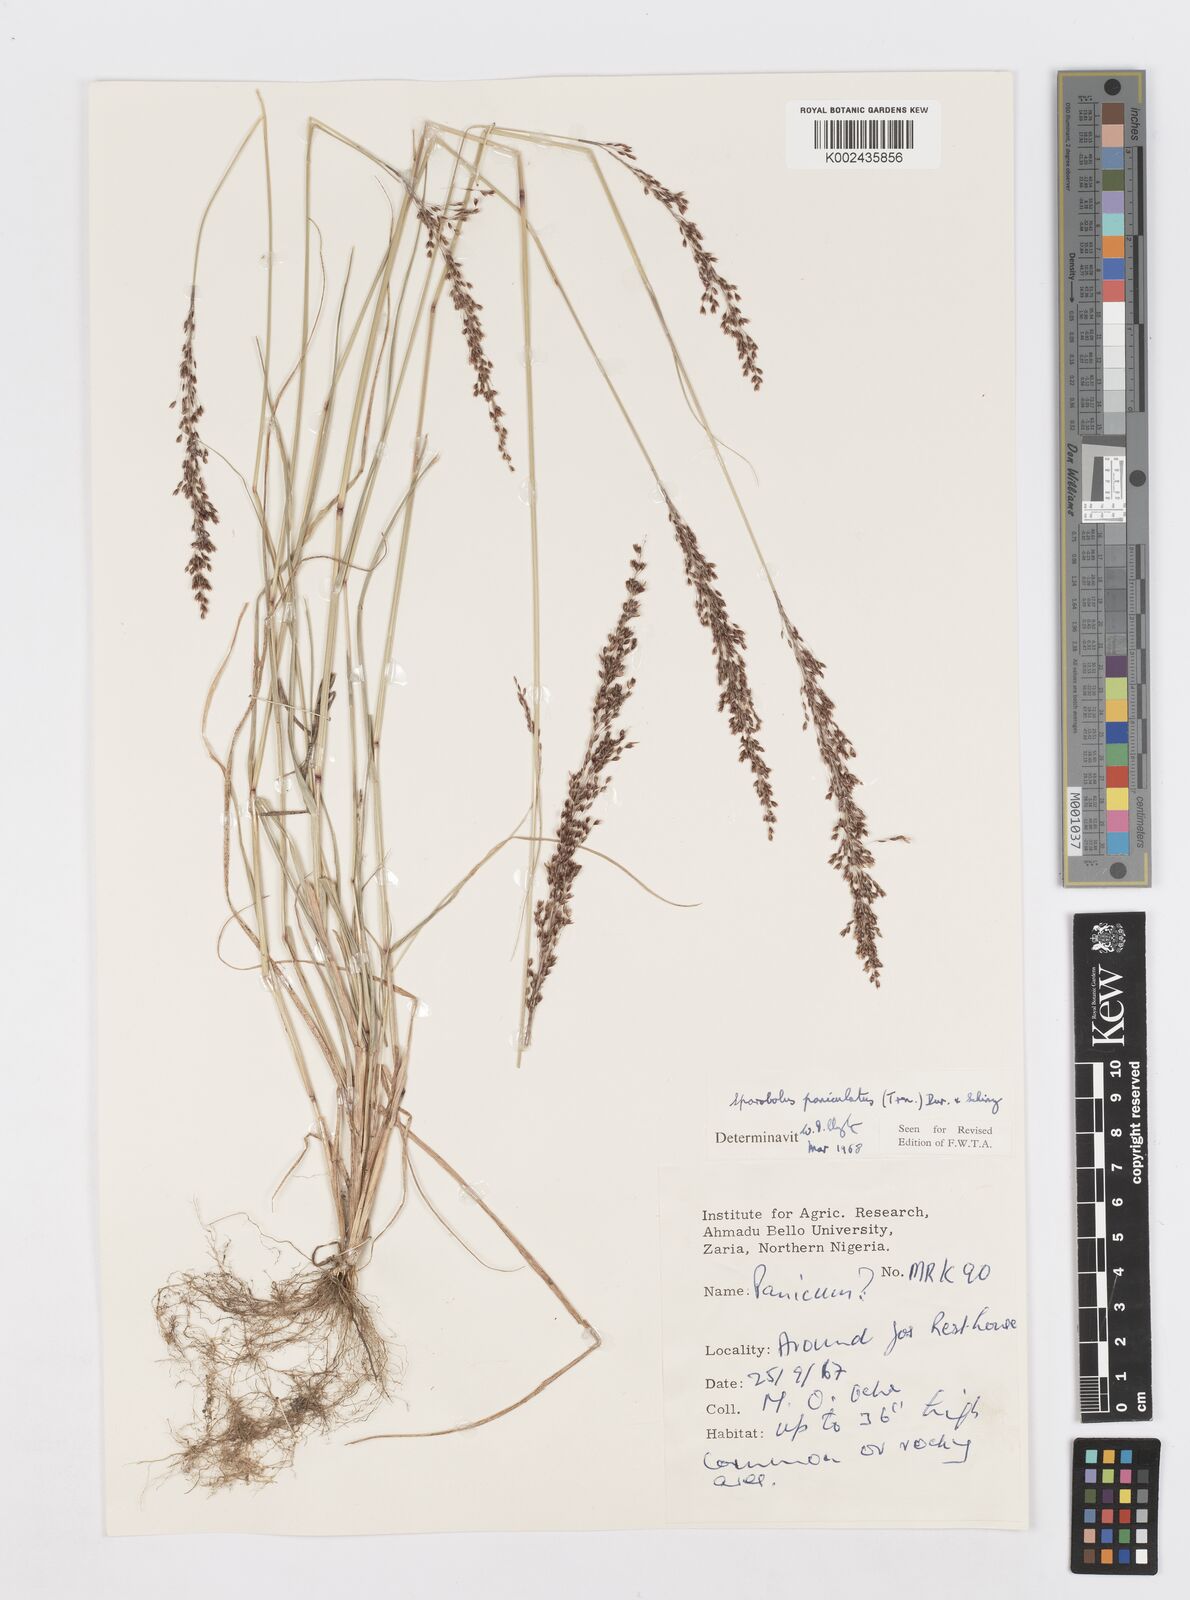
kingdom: Plantae
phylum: Tracheophyta
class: Liliopsida
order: Poales
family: Poaceae
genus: Sporobolus
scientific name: Sporobolus paniculatus
